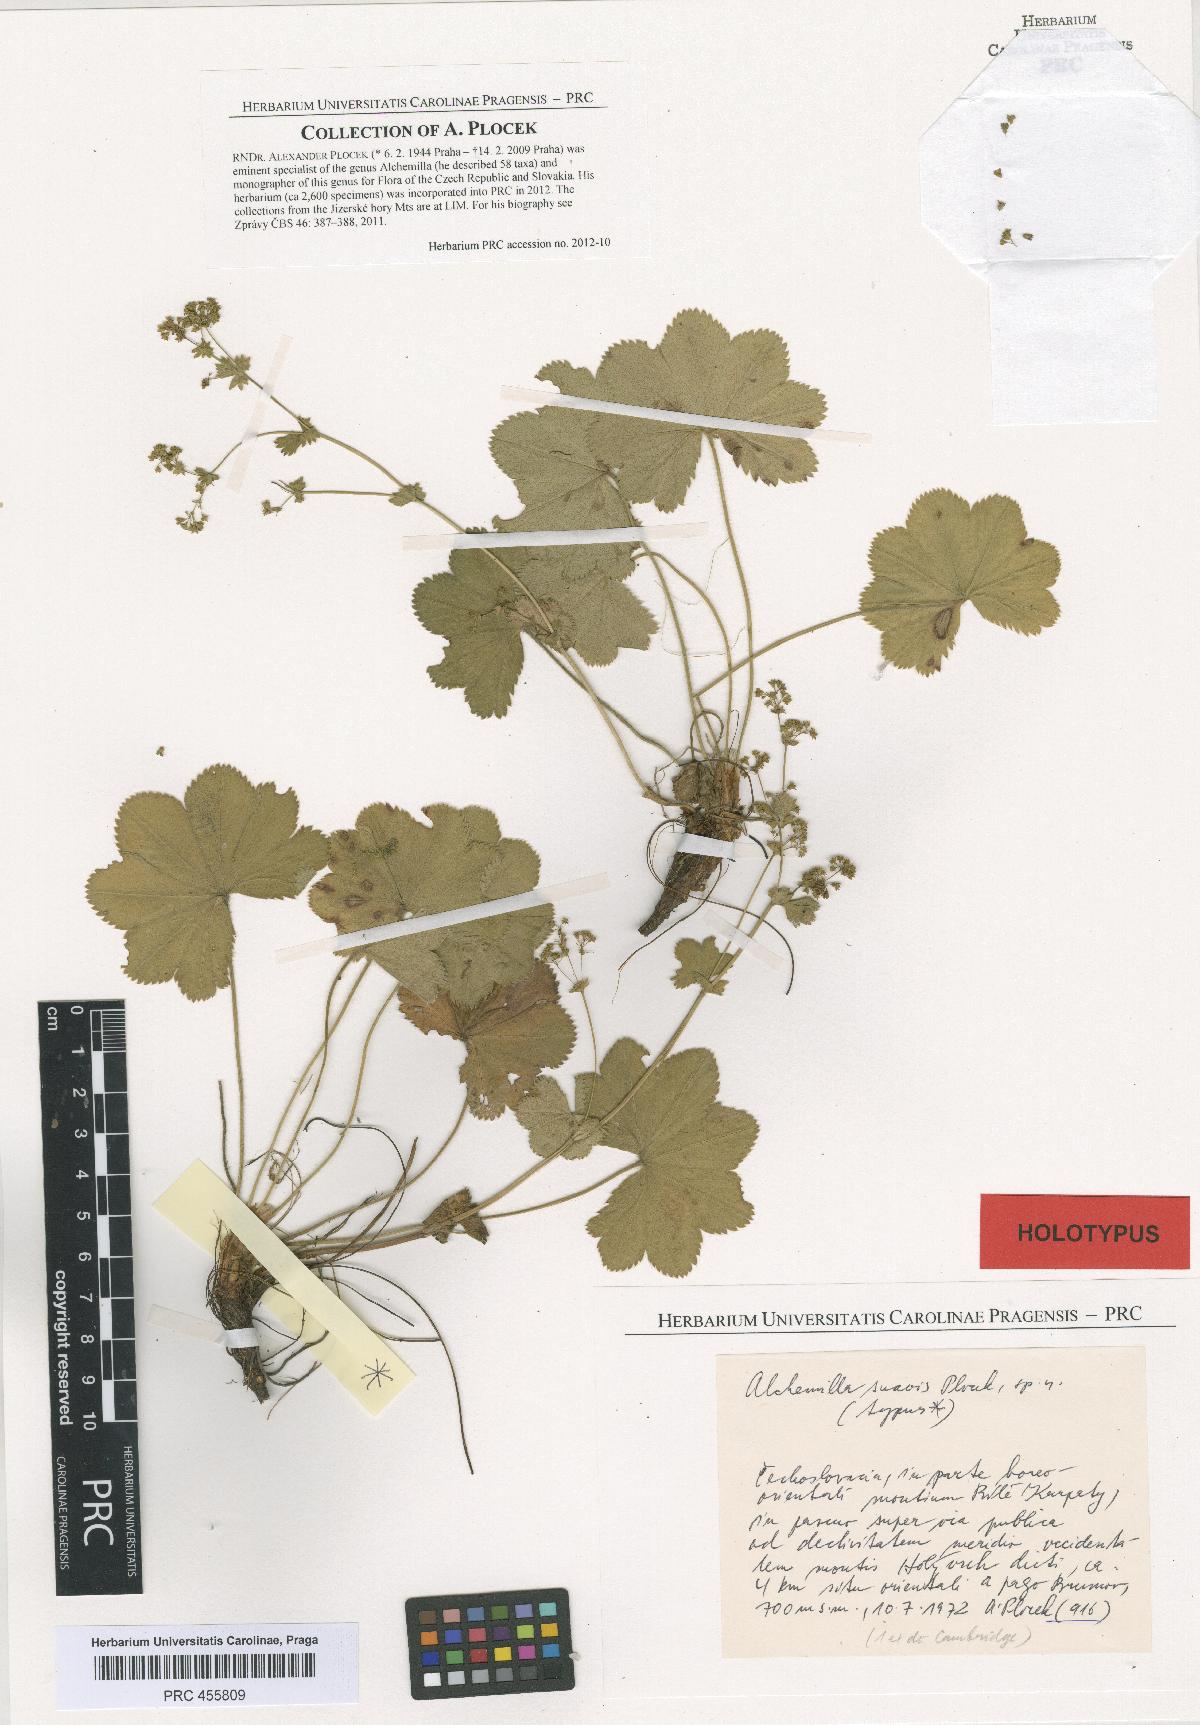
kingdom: Plantae
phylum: Tracheophyta
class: Magnoliopsida
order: Rosales
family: Rosaceae
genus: Alchemilla
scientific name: Alchemilla suavis
